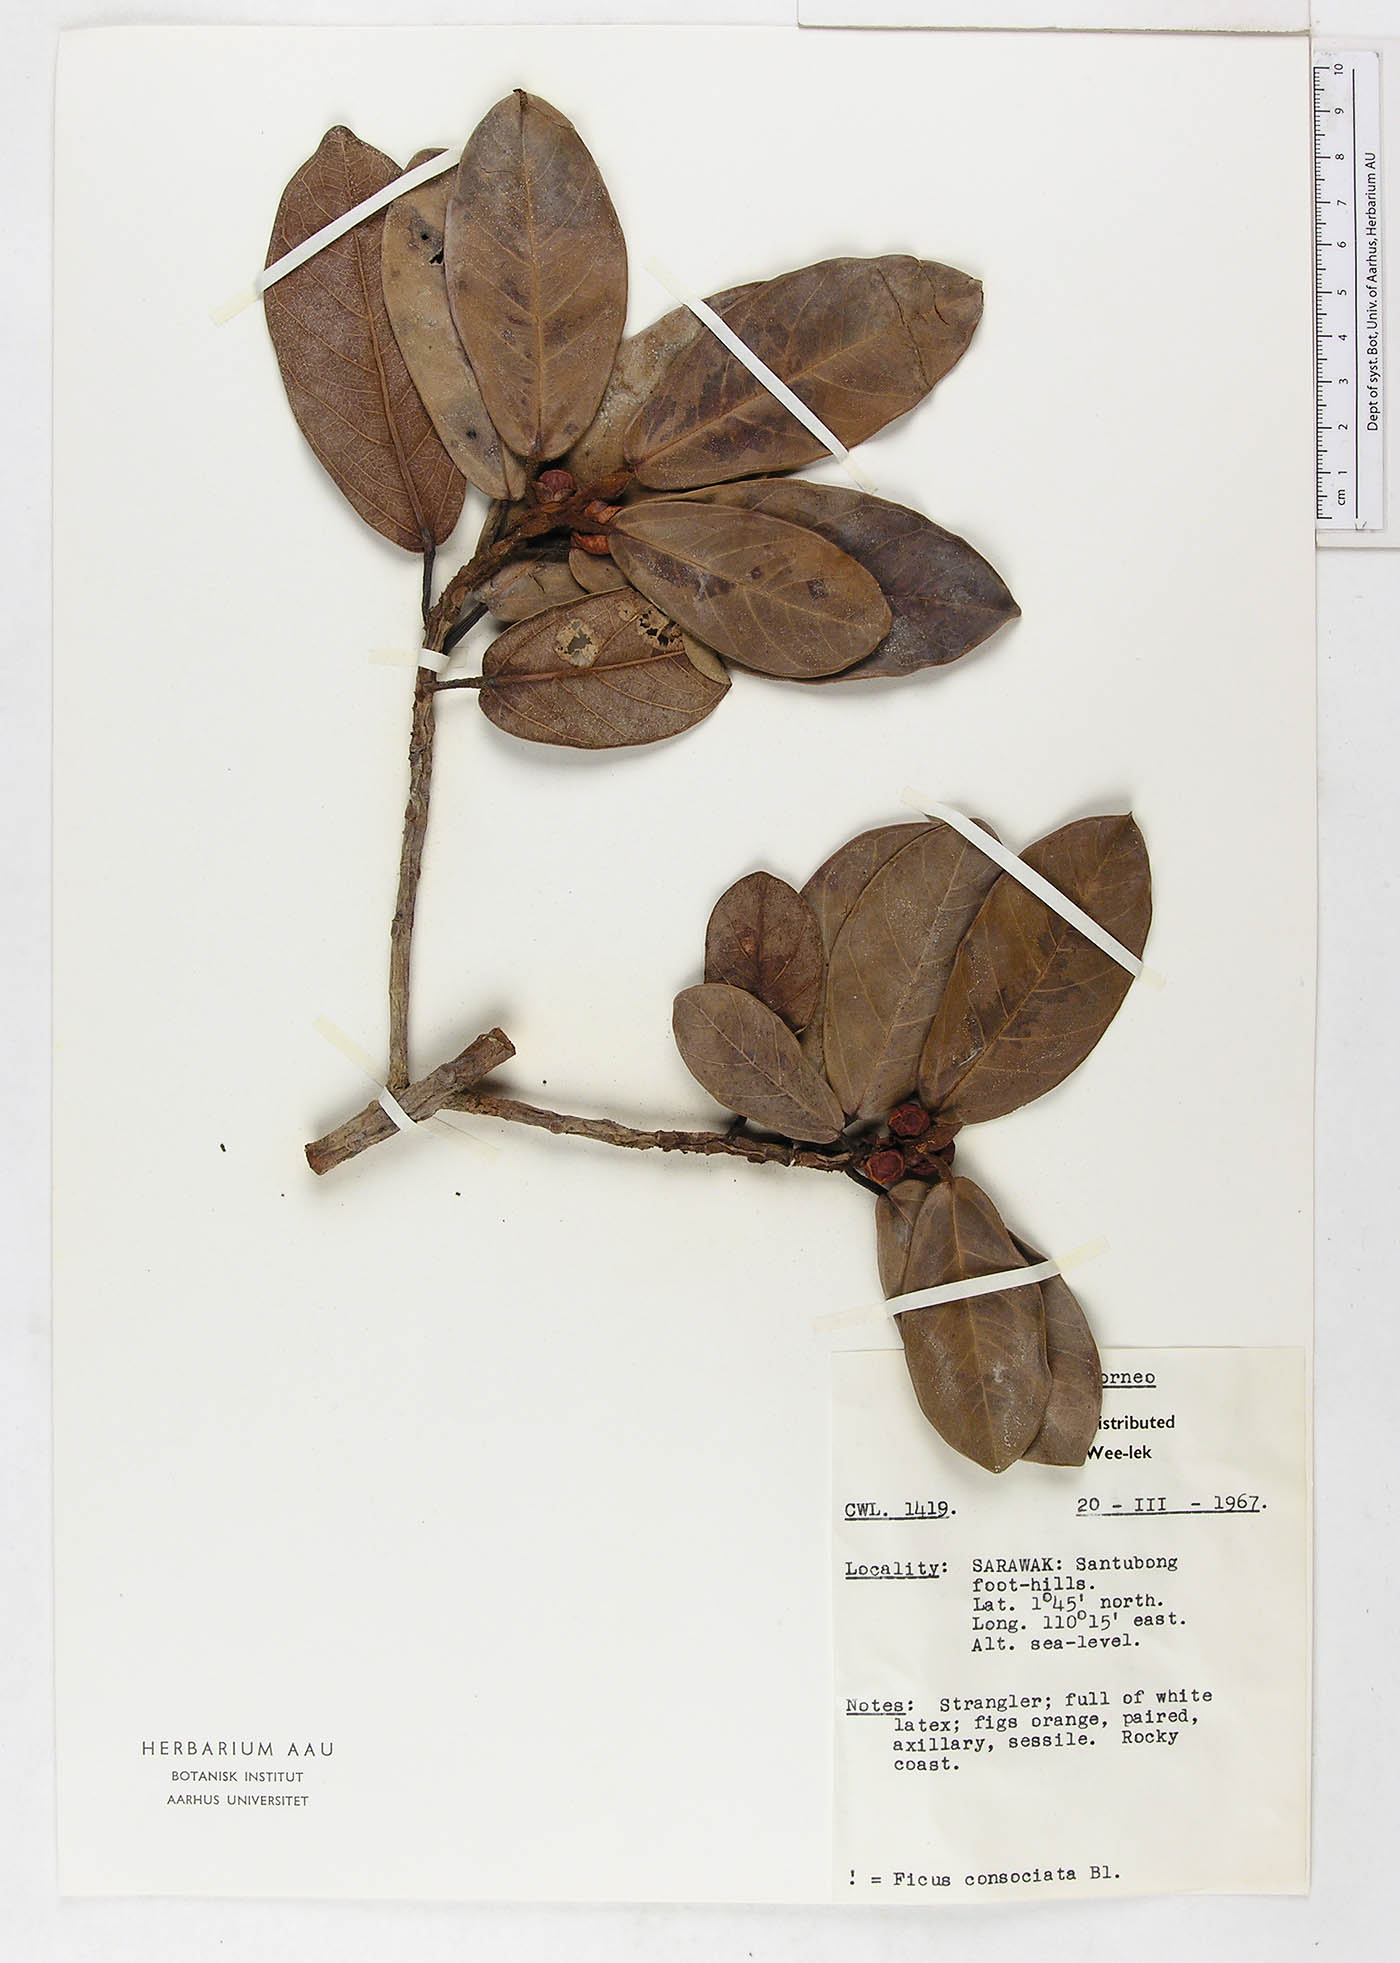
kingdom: Plantae
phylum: Tracheophyta
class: Magnoliopsida
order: Rosales
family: Moraceae
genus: Ficus
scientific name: Ficus consociata
